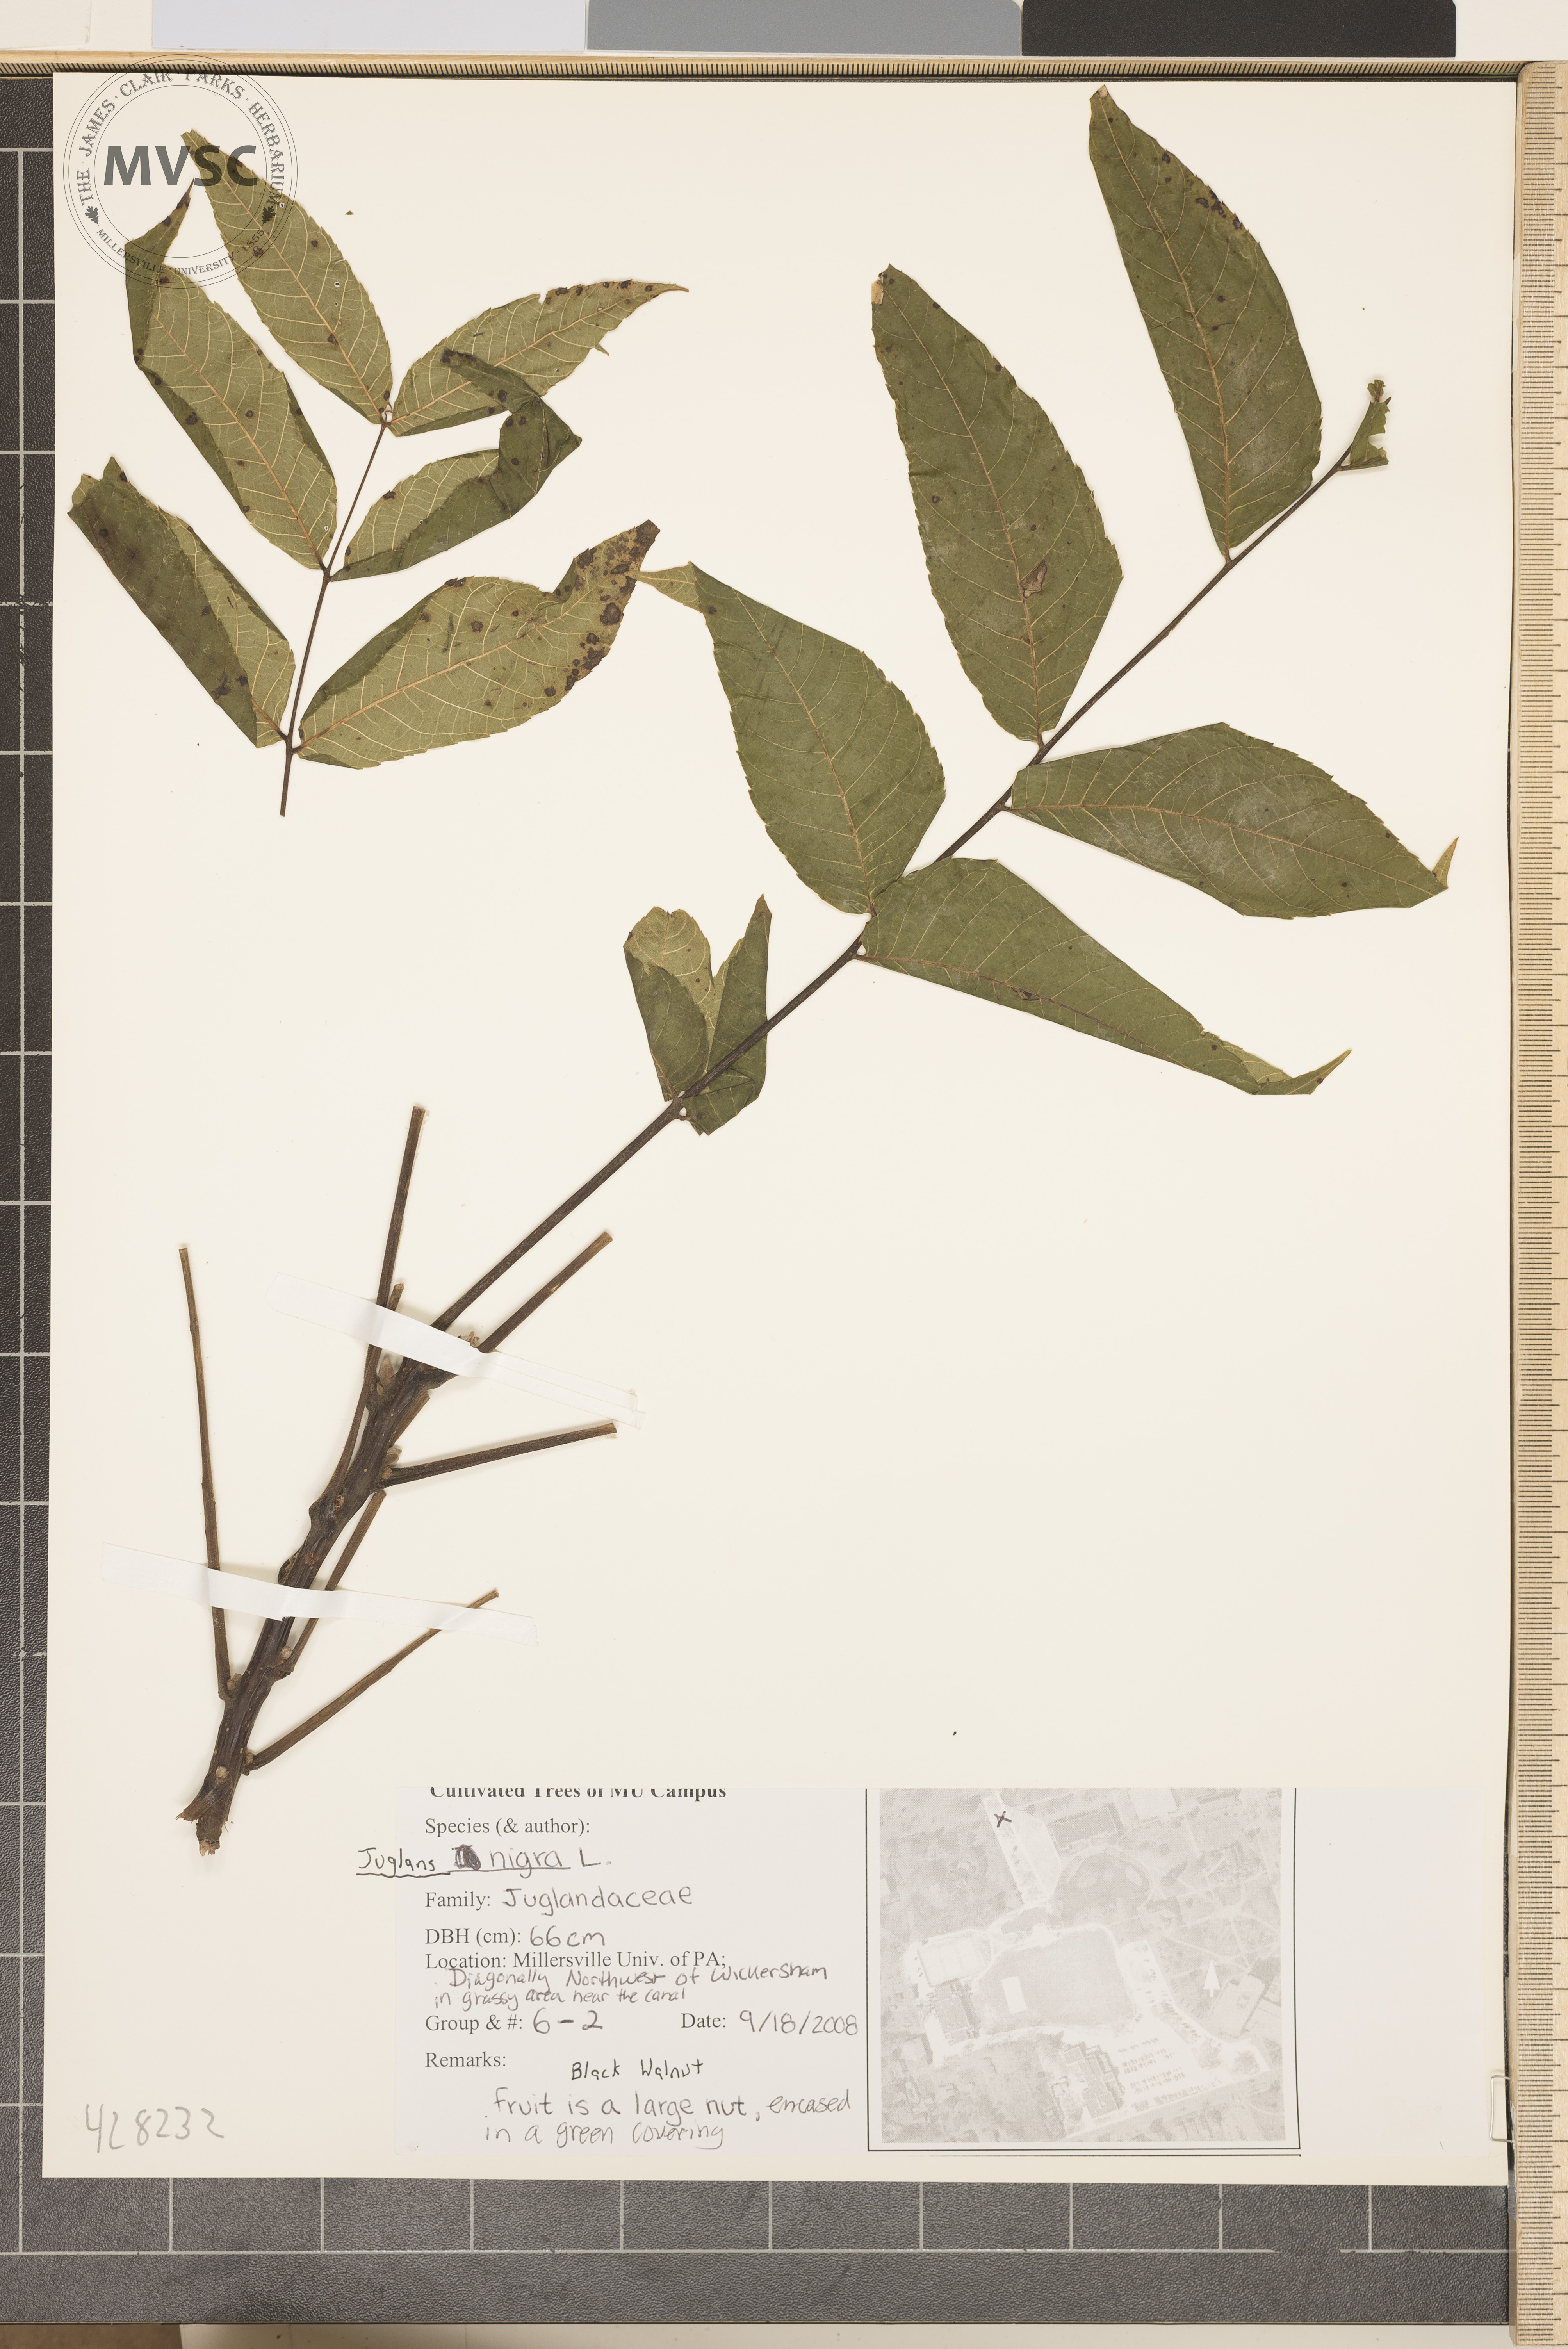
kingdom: Plantae
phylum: Tracheophyta
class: Magnoliopsida
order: Fagales
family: Juglandaceae
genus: Juglans
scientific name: Juglans nigra
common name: Black walnut
